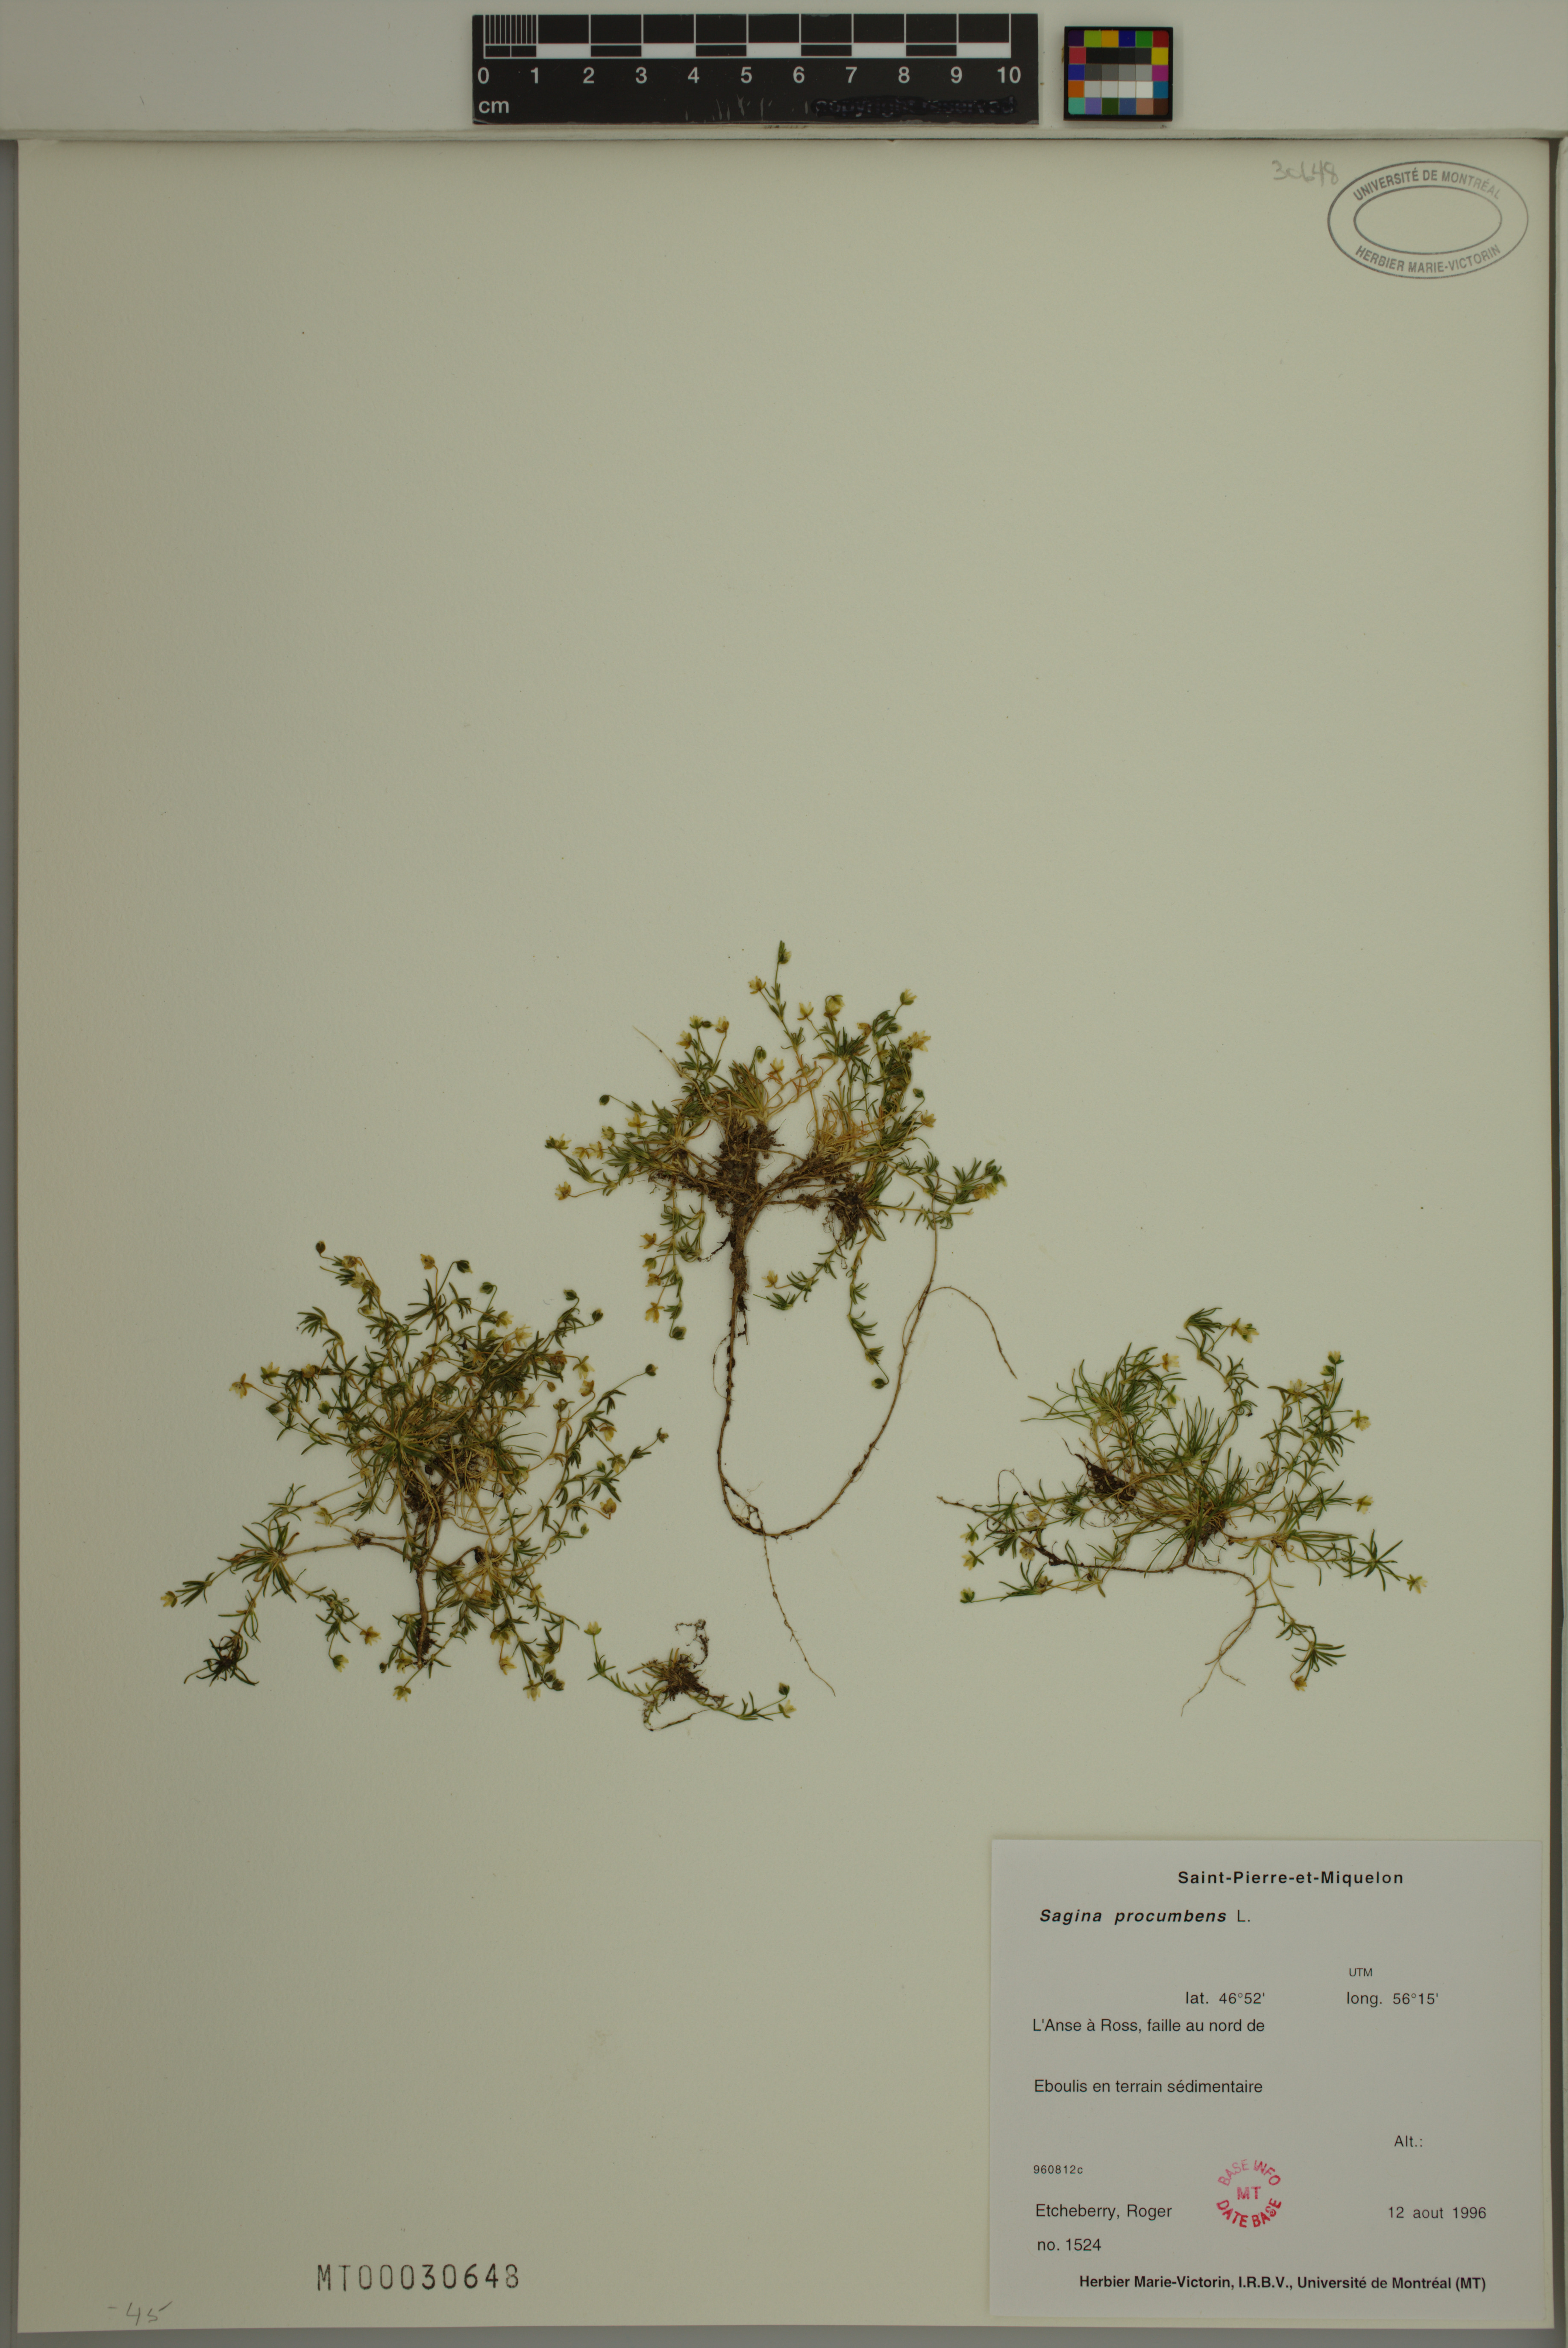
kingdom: Plantae
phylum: Tracheophyta
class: Magnoliopsida
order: Caryophyllales
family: Caryophyllaceae
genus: Sagina
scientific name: Sagina procumbens
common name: Procumbent pearlwort
